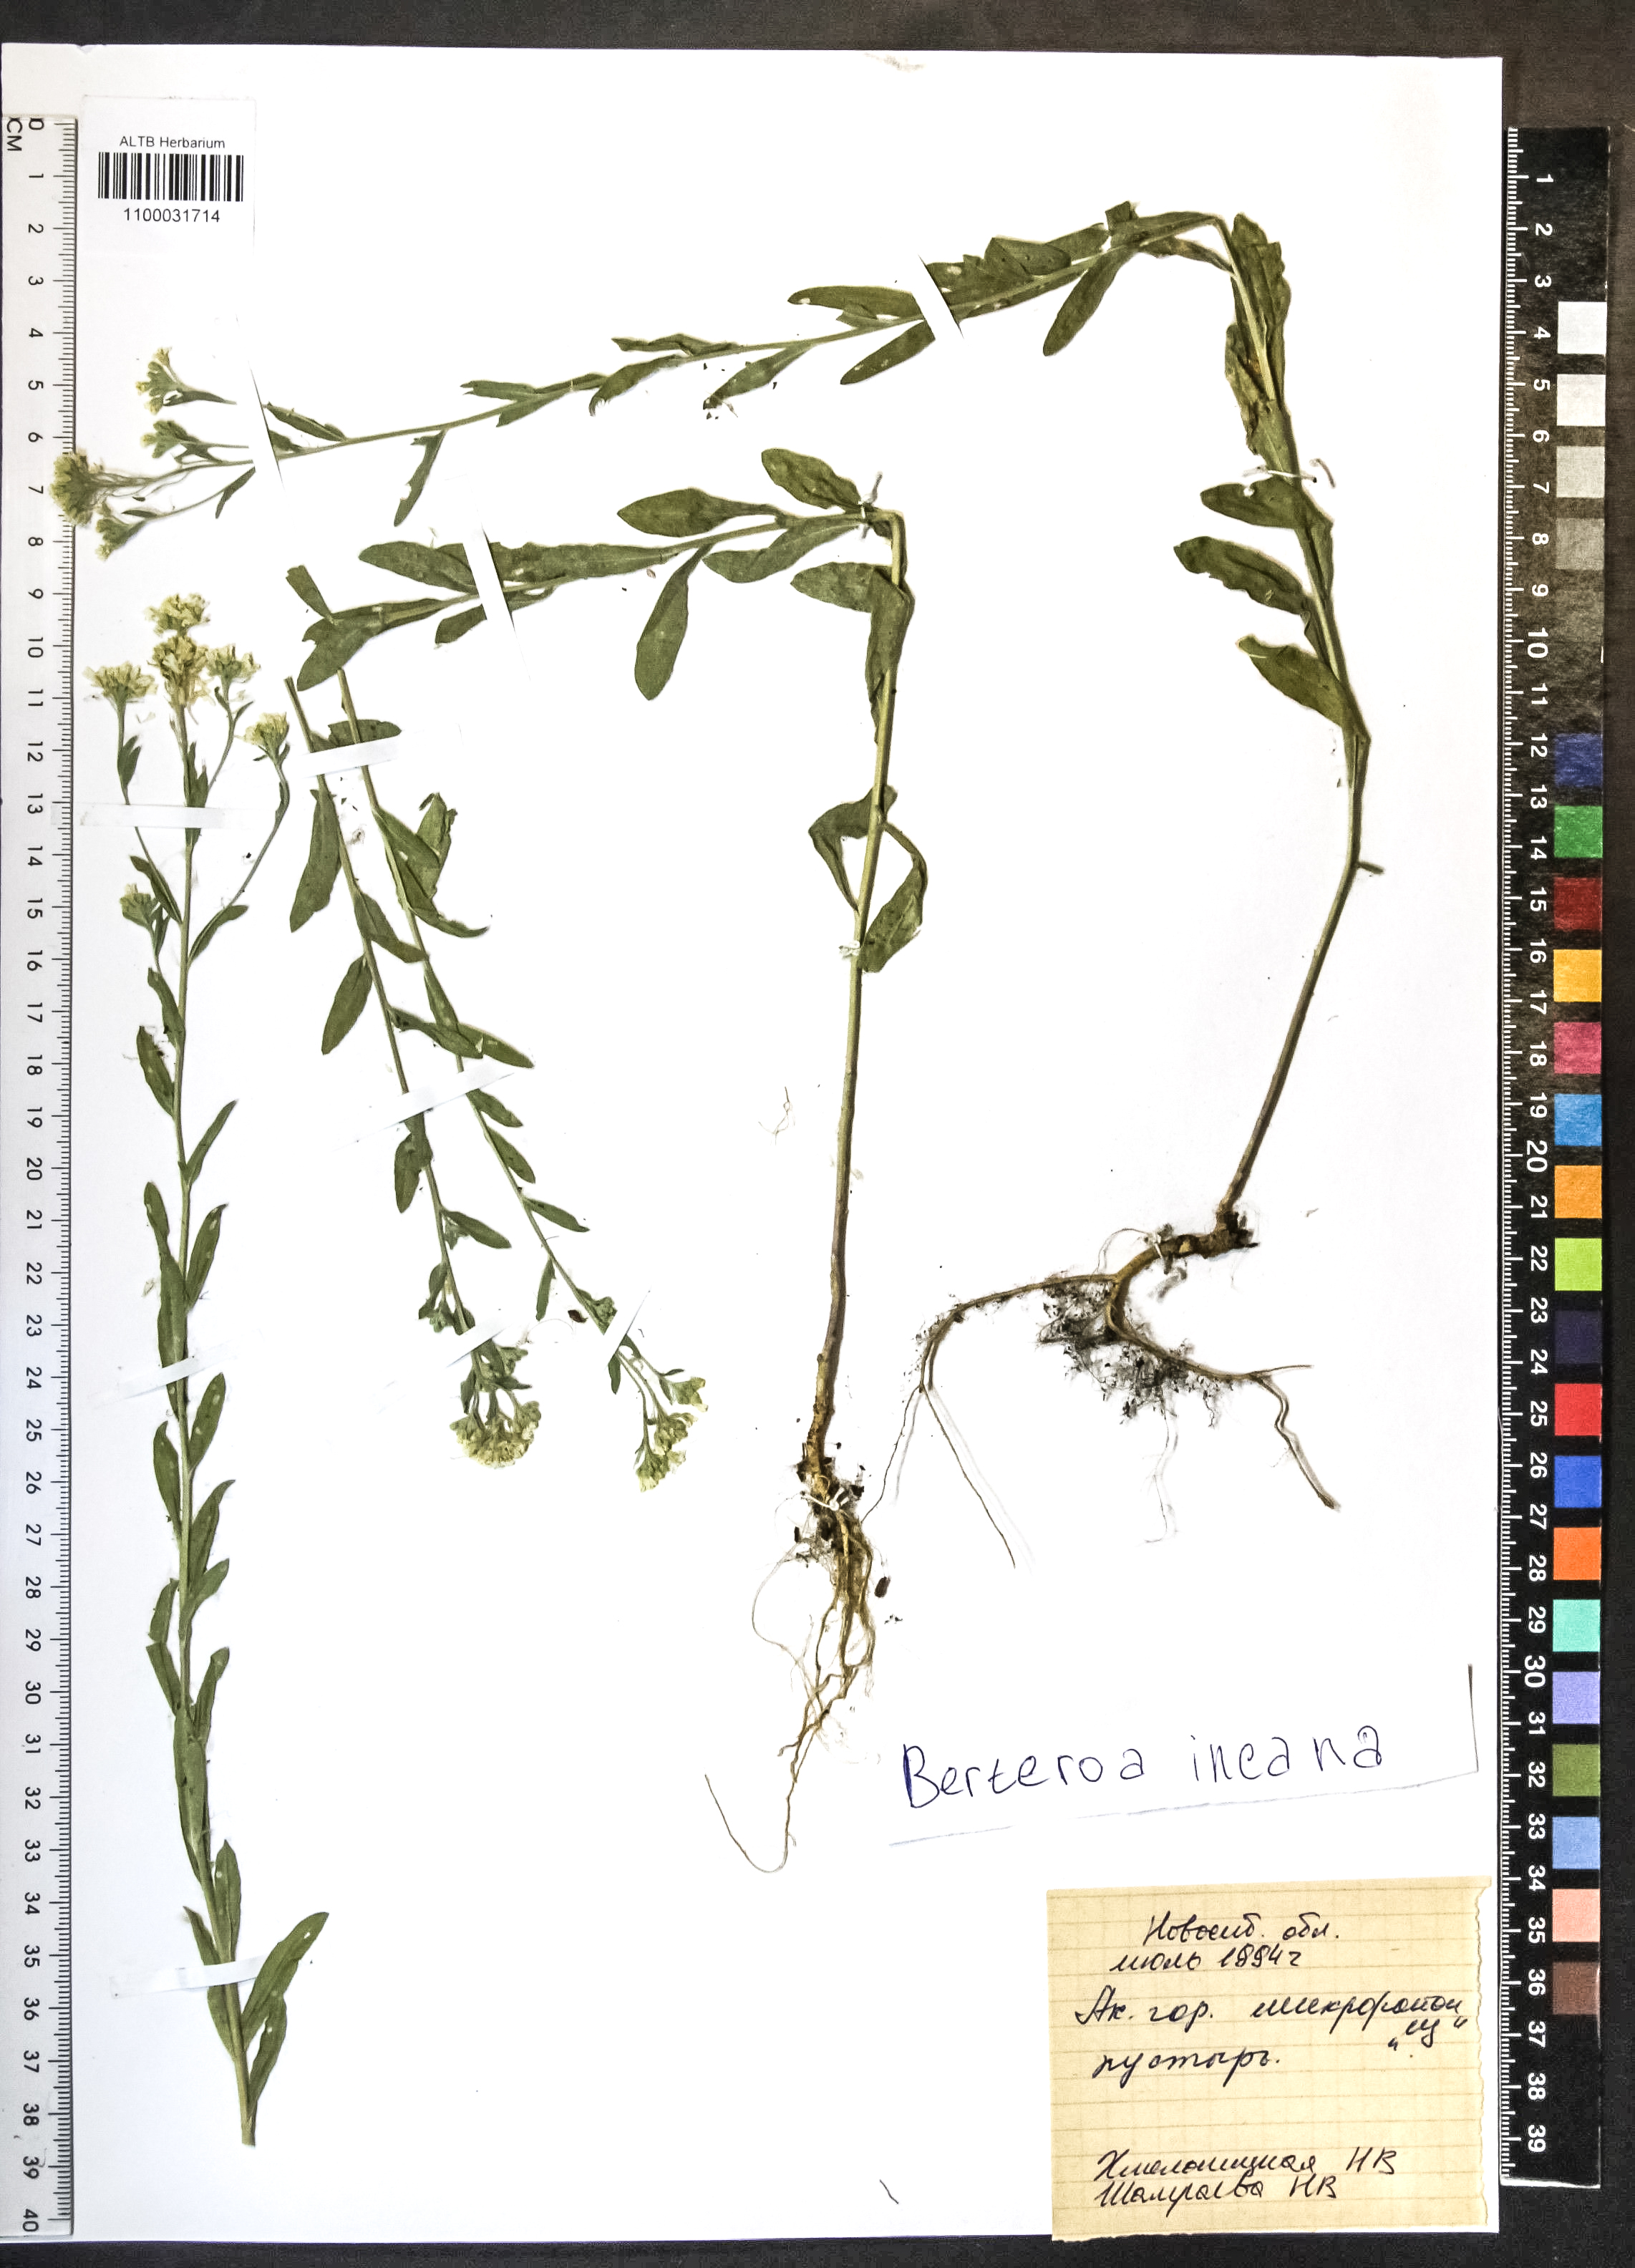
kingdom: Plantae
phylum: Tracheophyta
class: Magnoliopsida
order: Brassicales
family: Brassicaceae
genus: Berteroa
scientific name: Berteroa incana
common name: Hoary alison
